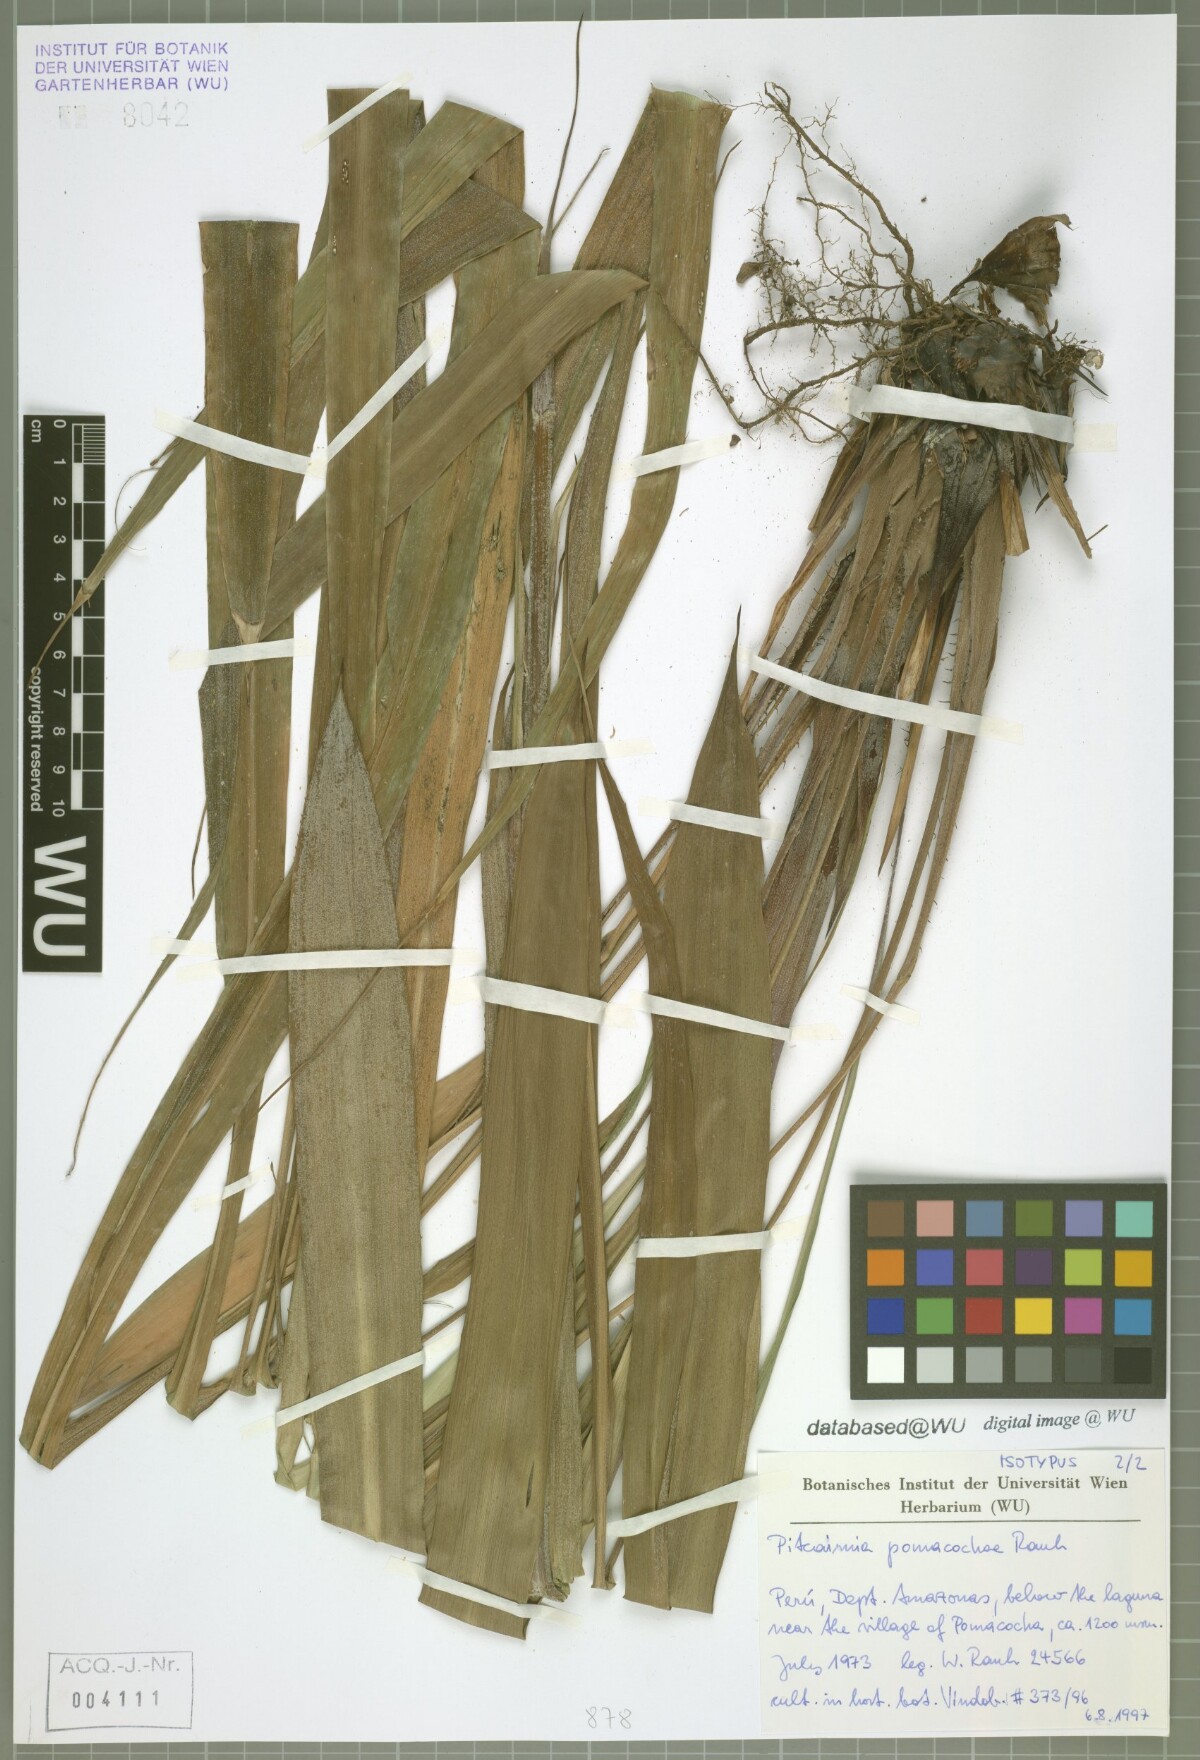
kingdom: Plantae
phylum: Tracheophyta
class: Liliopsida
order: Poales
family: Bromeliaceae
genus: Pitcairnia
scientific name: Pitcairnia pomacochae
